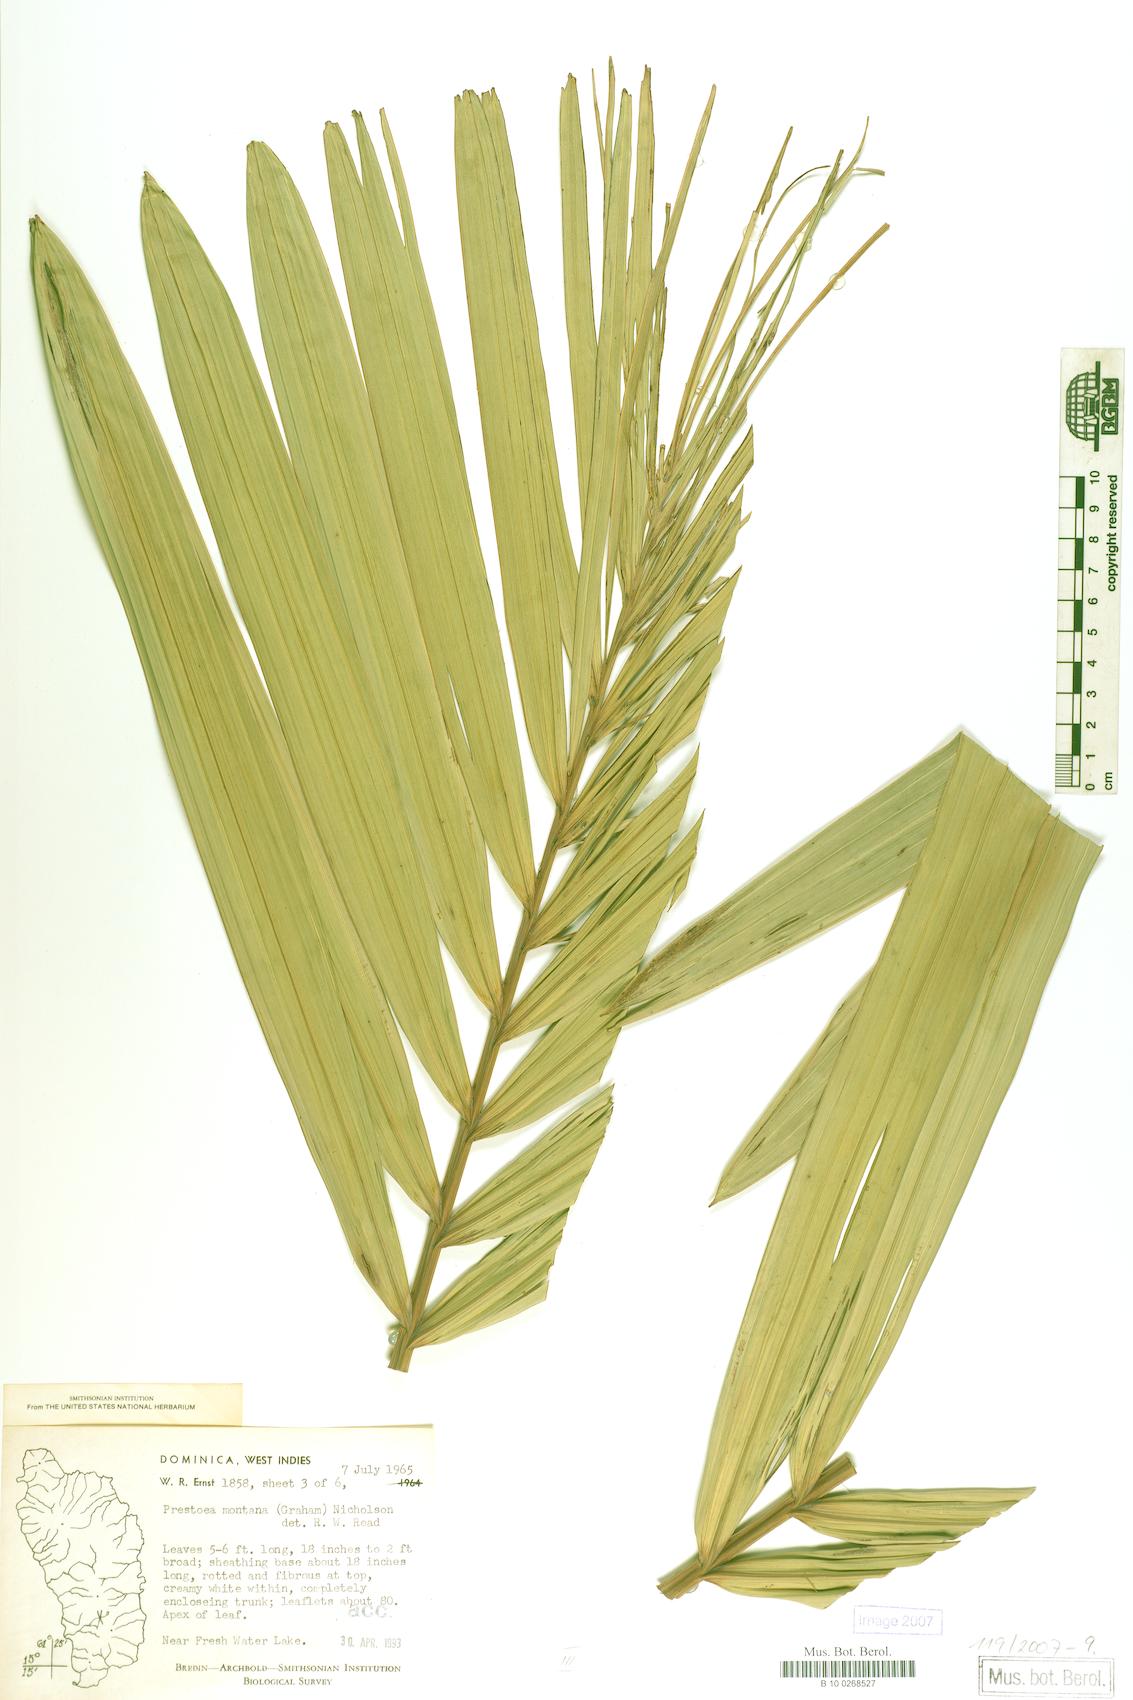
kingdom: Plantae
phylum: Tracheophyta
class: Liliopsida
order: Arecales
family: Arecaceae
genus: Prestoea
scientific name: Prestoea acuminata
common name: Sierran palm
